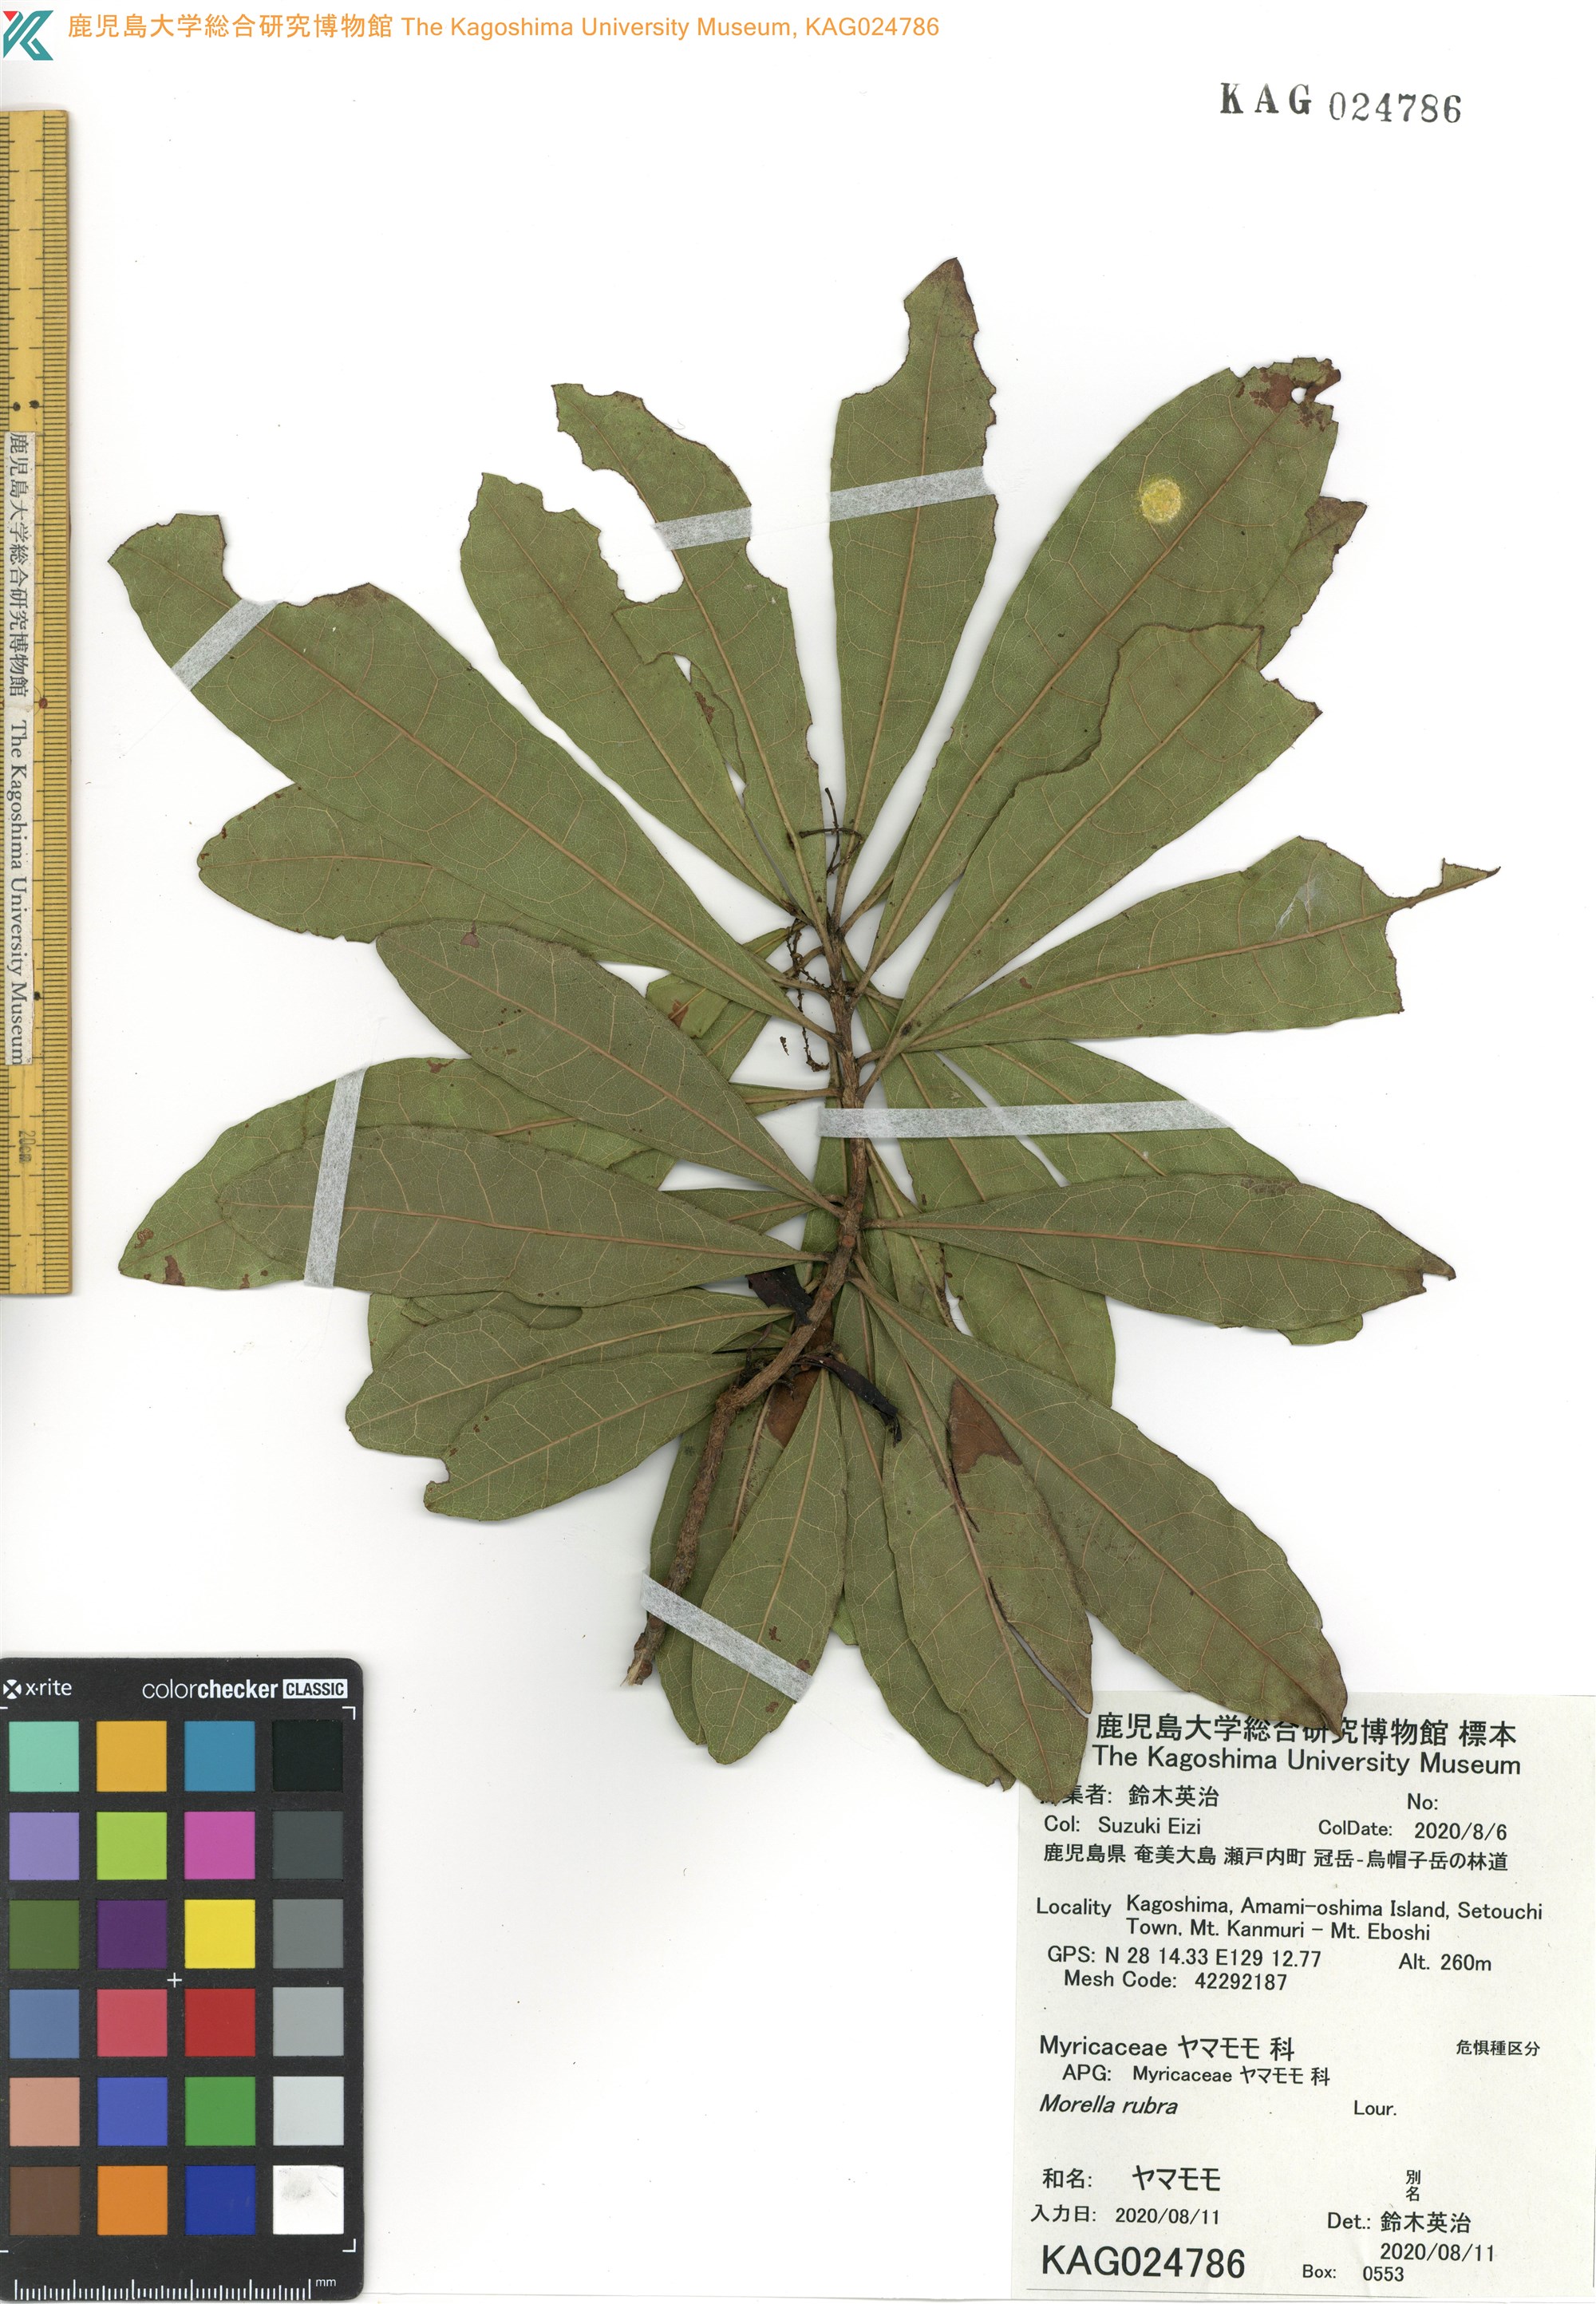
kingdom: Plantae
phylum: Tracheophyta
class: Magnoliopsida
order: Fagales
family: Myricaceae
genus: Morella
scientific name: Morella rubra
